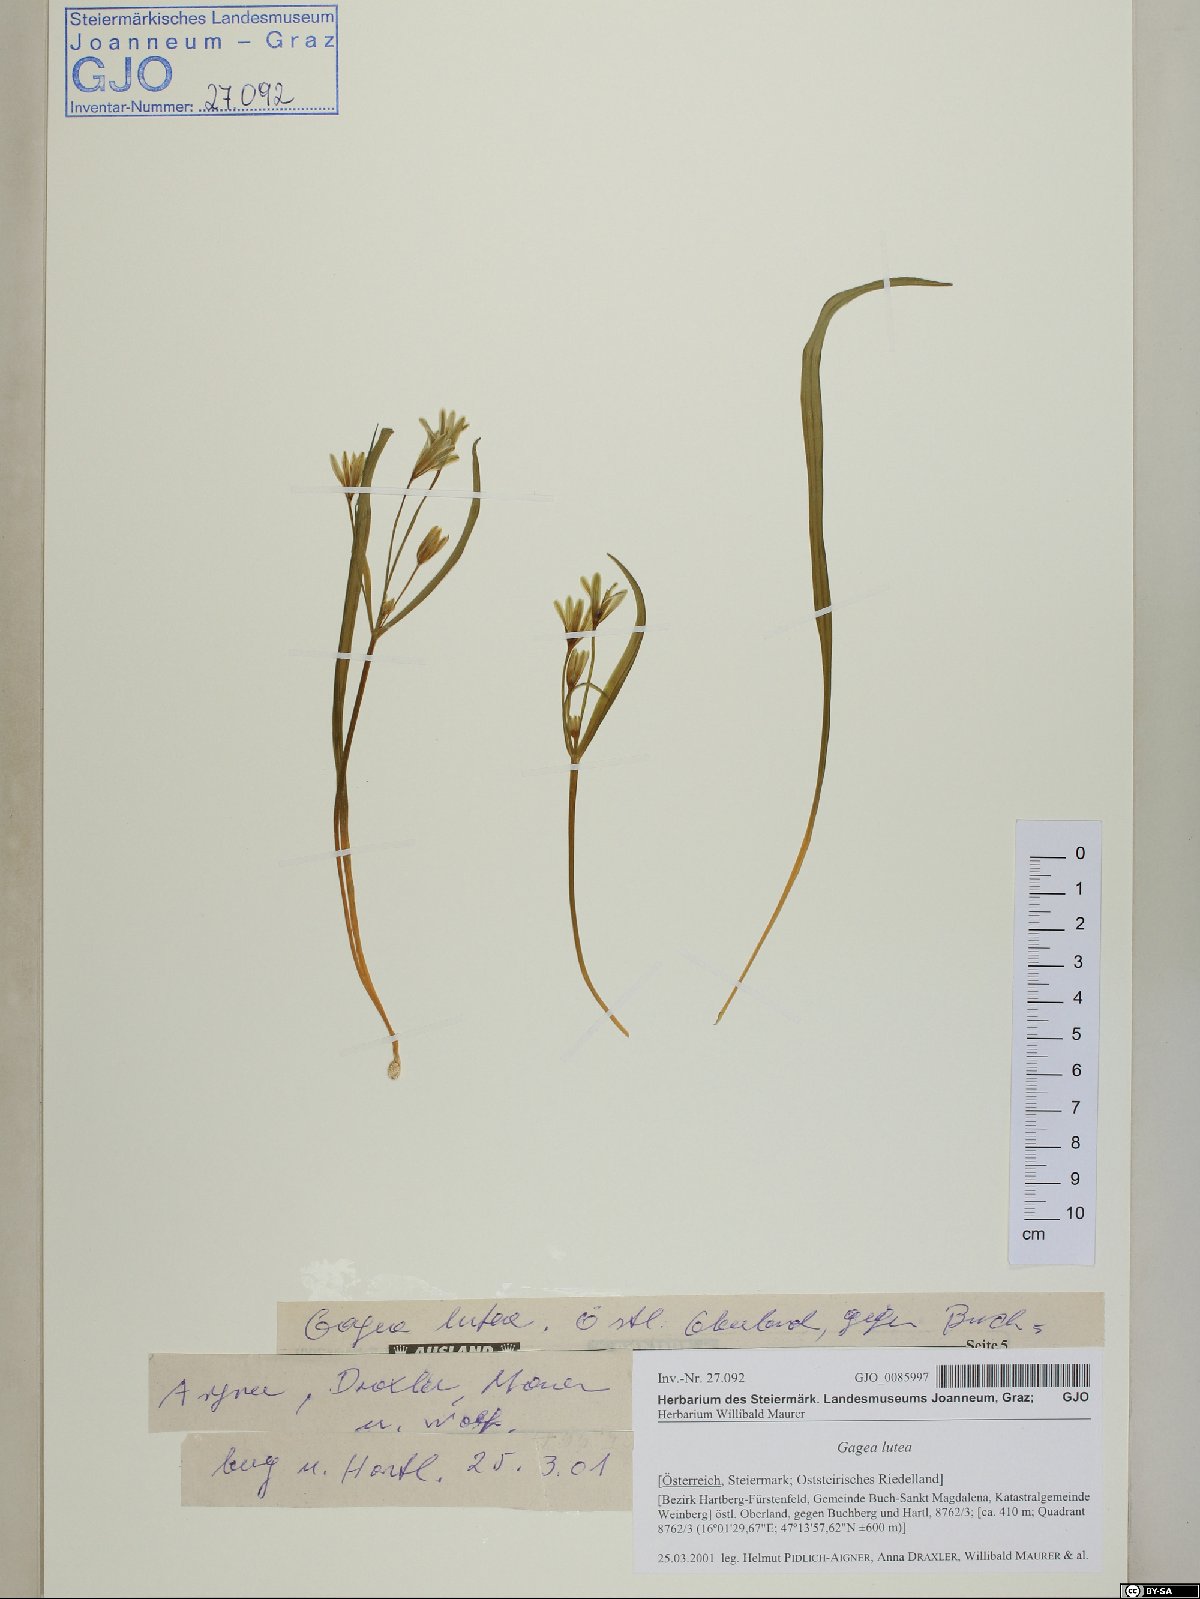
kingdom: Plantae
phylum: Tracheophyta
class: Liliopsida
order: Liliales
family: Liliaceae
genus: Gagea
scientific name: Gagea lutea
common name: Yellow star-of-bethlehem
